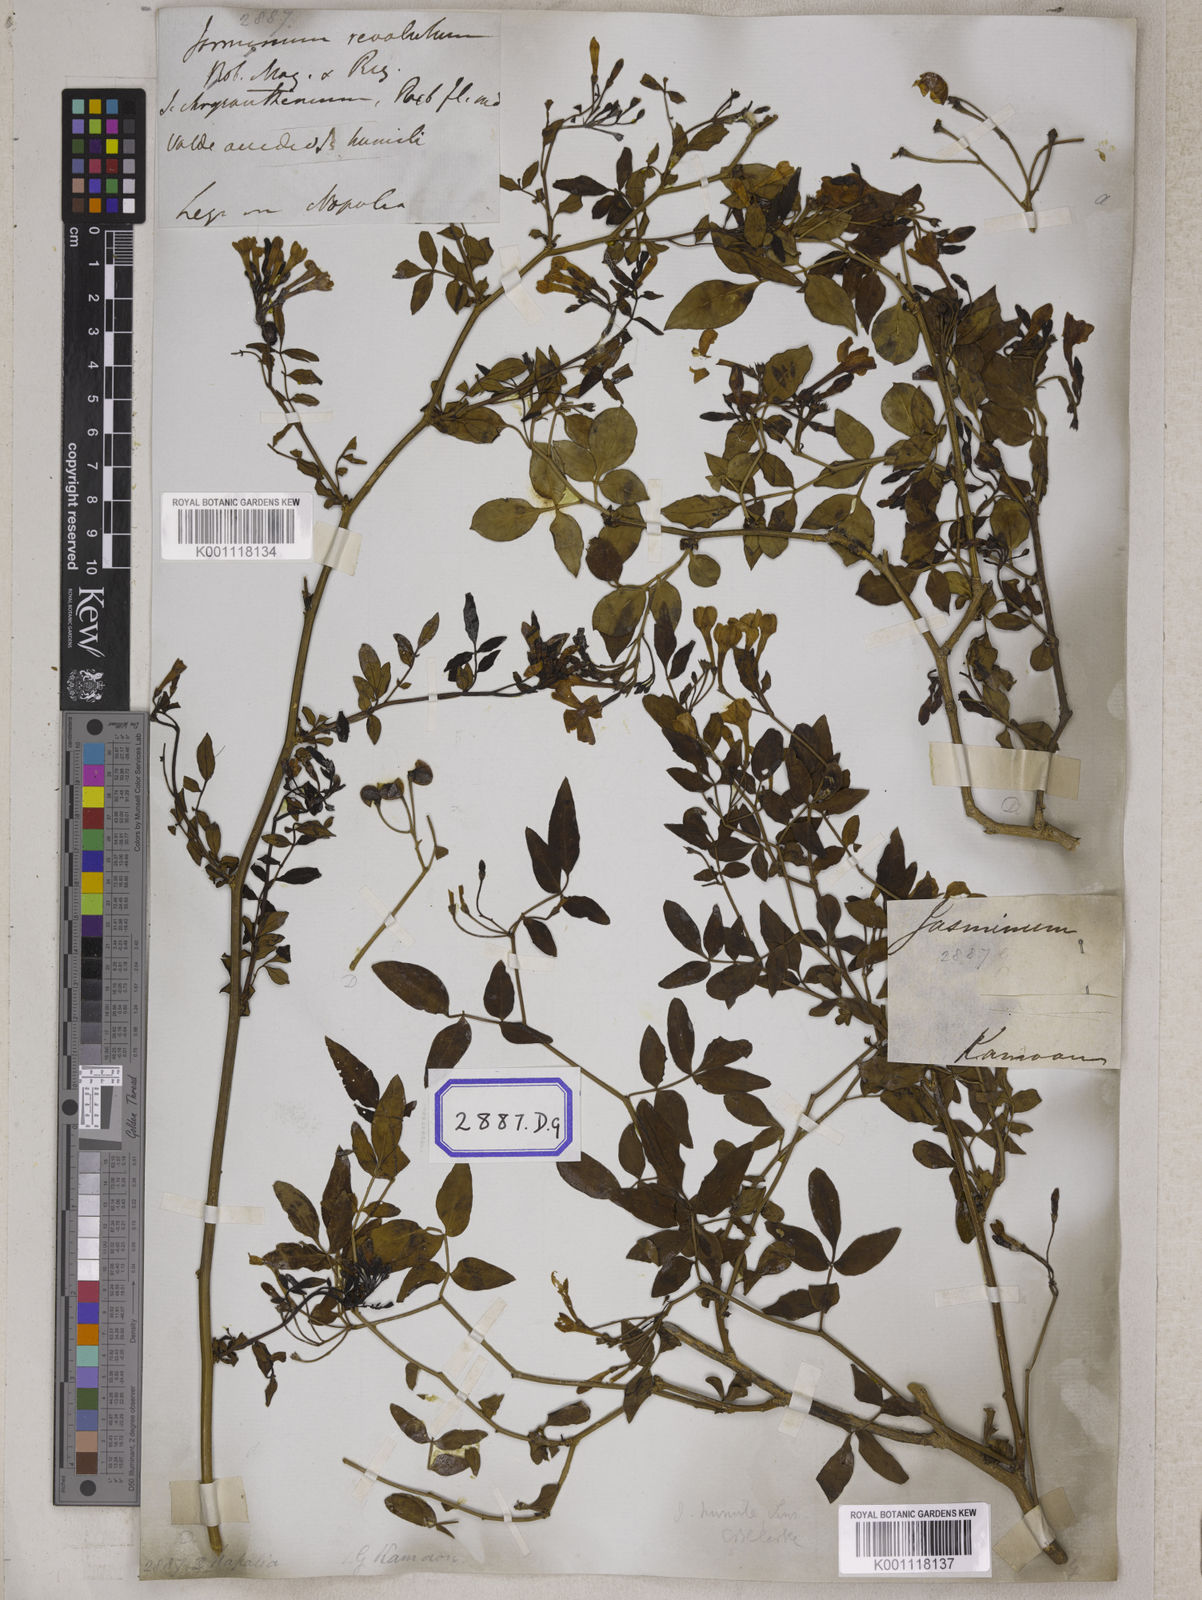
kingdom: Plantae
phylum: Tracheophyta
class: Magnoliopsida
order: Lamiales
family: Oleaceae
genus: Chrysojasminum
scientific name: Chrysojasminum humile
